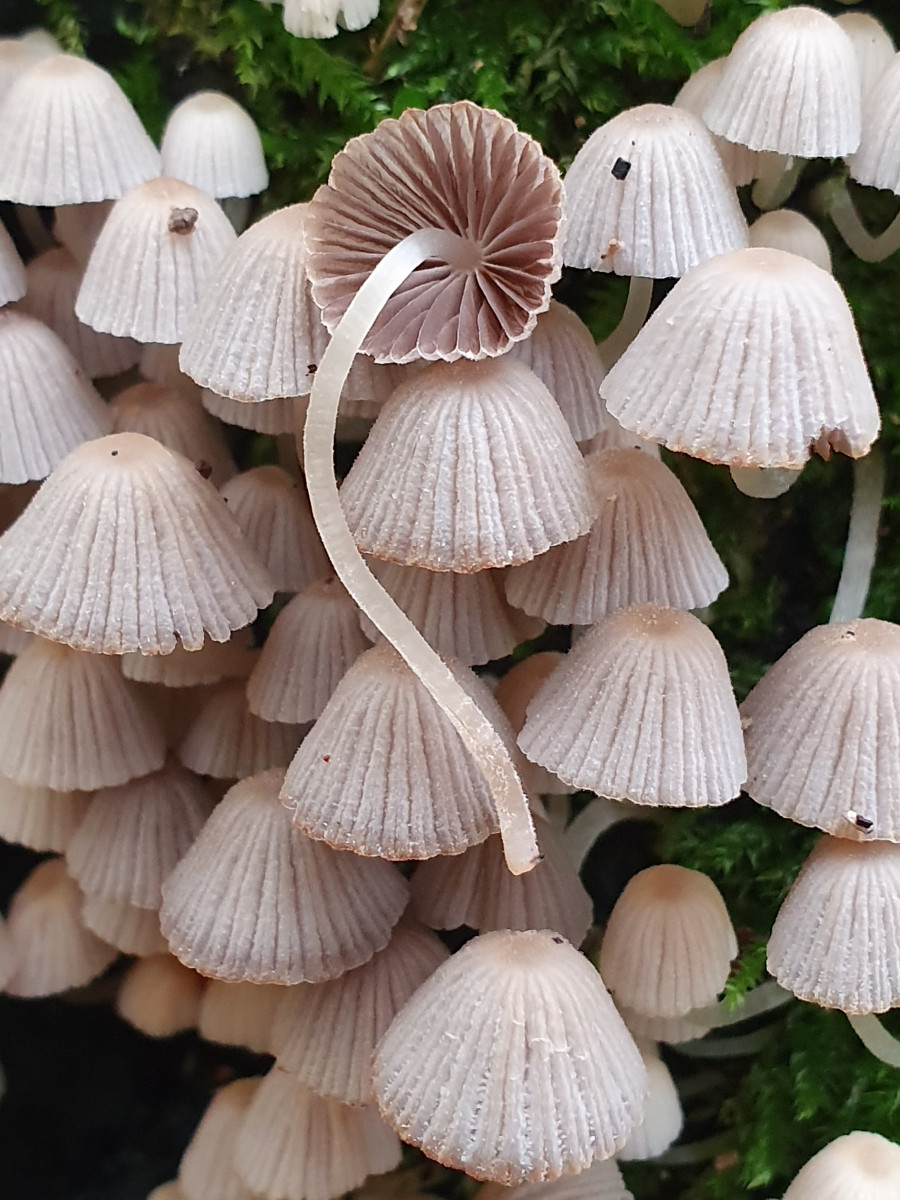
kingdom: Fungi
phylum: Basidiomycota
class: Agaricomycetes
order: Agaricales
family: Psathyrellaceae
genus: Coprinellus
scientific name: Coprinellus disseminatus
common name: bredsået blækhat
